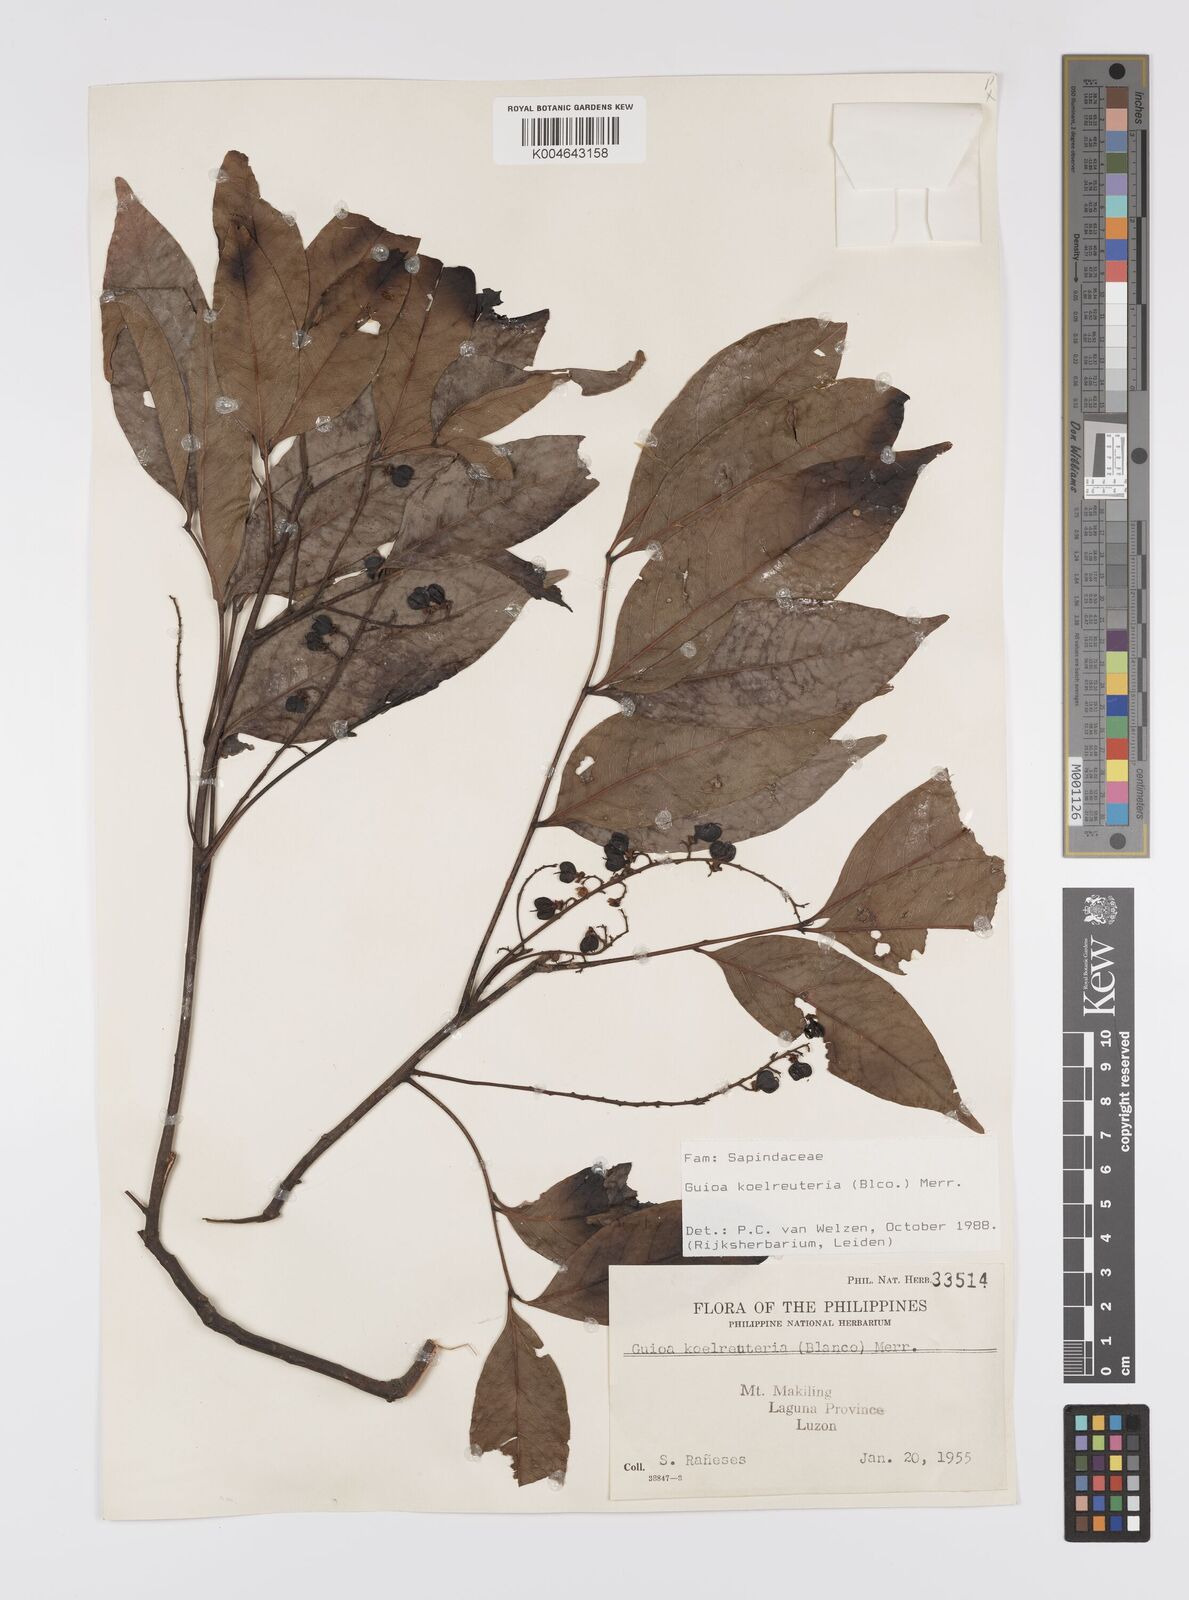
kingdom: Plantae
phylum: Tracheophyta
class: Magnoliopsida
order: Sapindales
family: Sapindaceae
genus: Guioa
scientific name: Guioa koelreuteria
